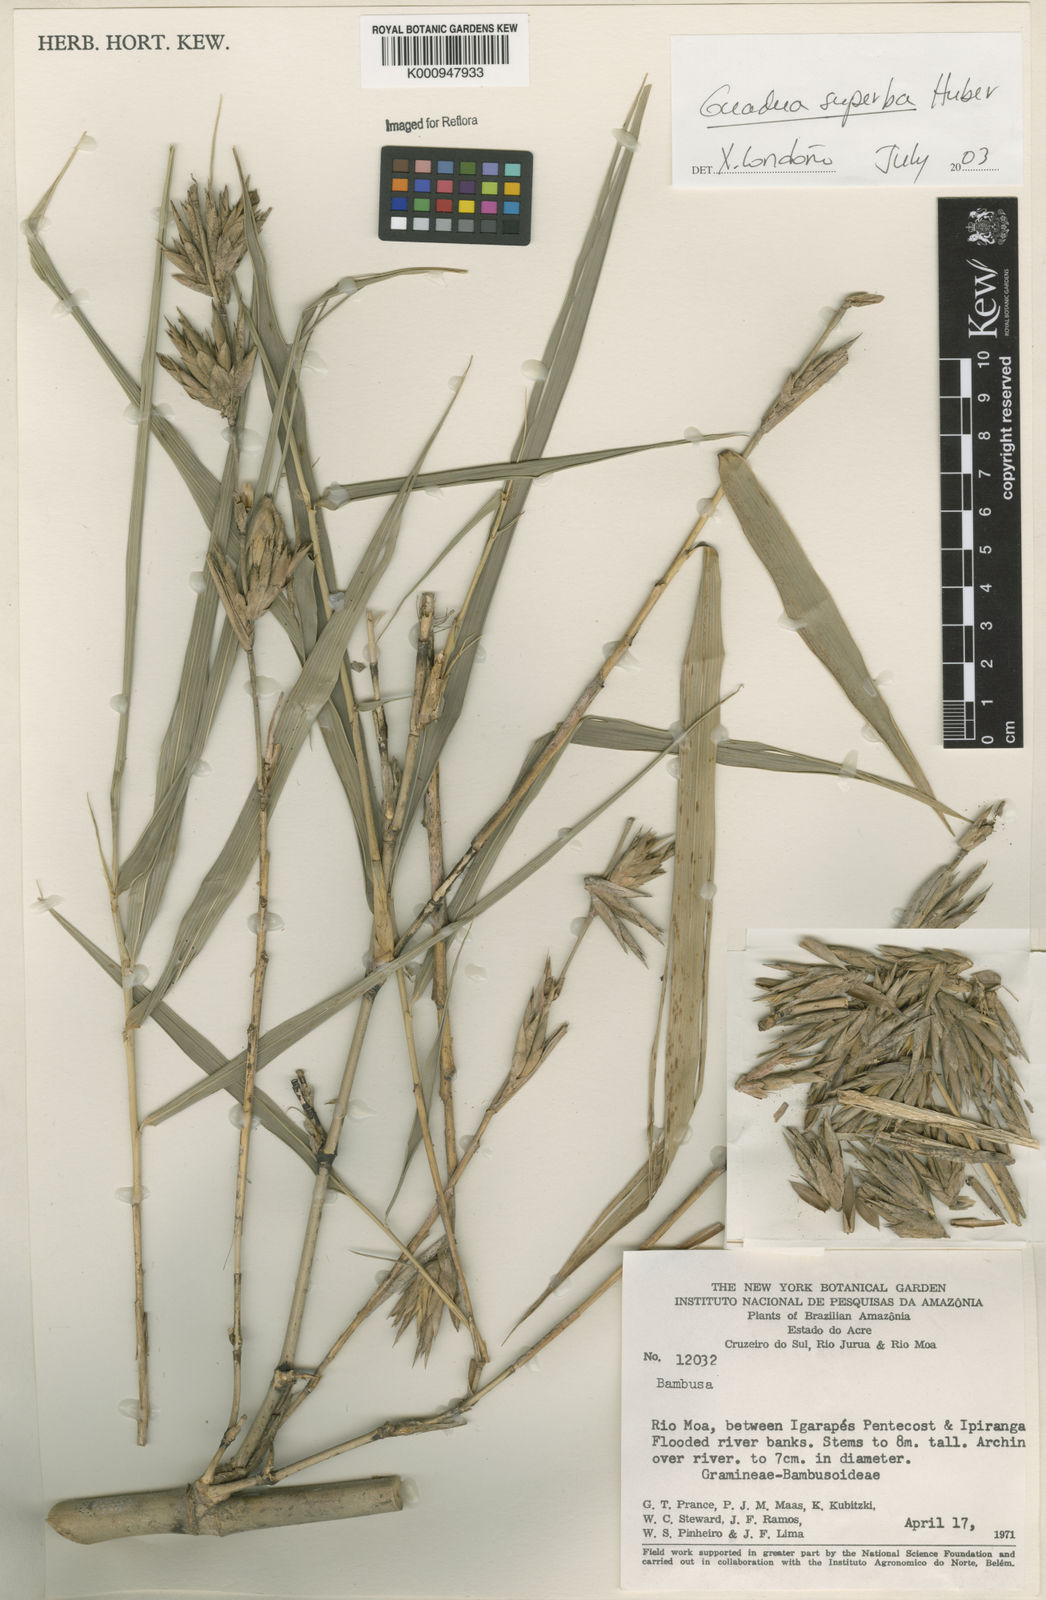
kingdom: Plantae
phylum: Tracheophyta
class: Liliopsida
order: Poales
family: Poaceae
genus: Guadua
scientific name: Guadua superba
